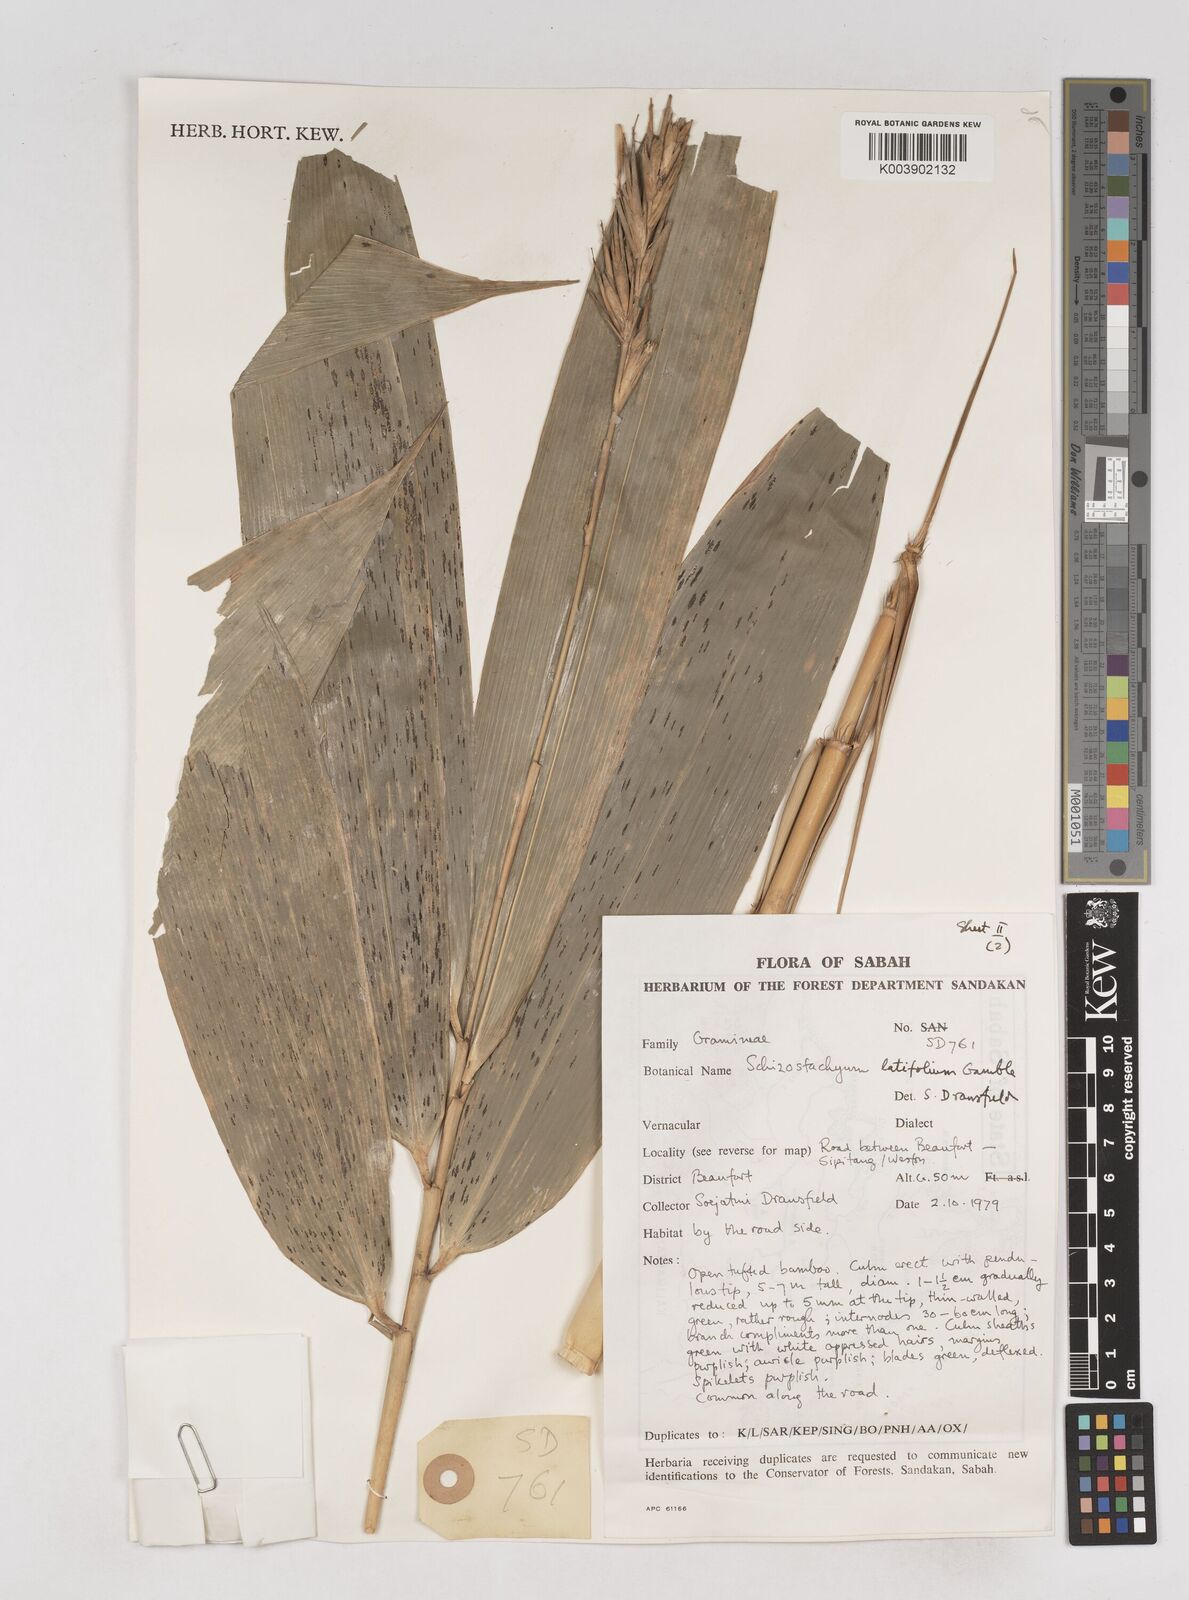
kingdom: Plantae
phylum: Tracheophyta
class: Liliopsida
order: Poales
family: Poaceae
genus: Schizostachyum
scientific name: Schizostachyum
